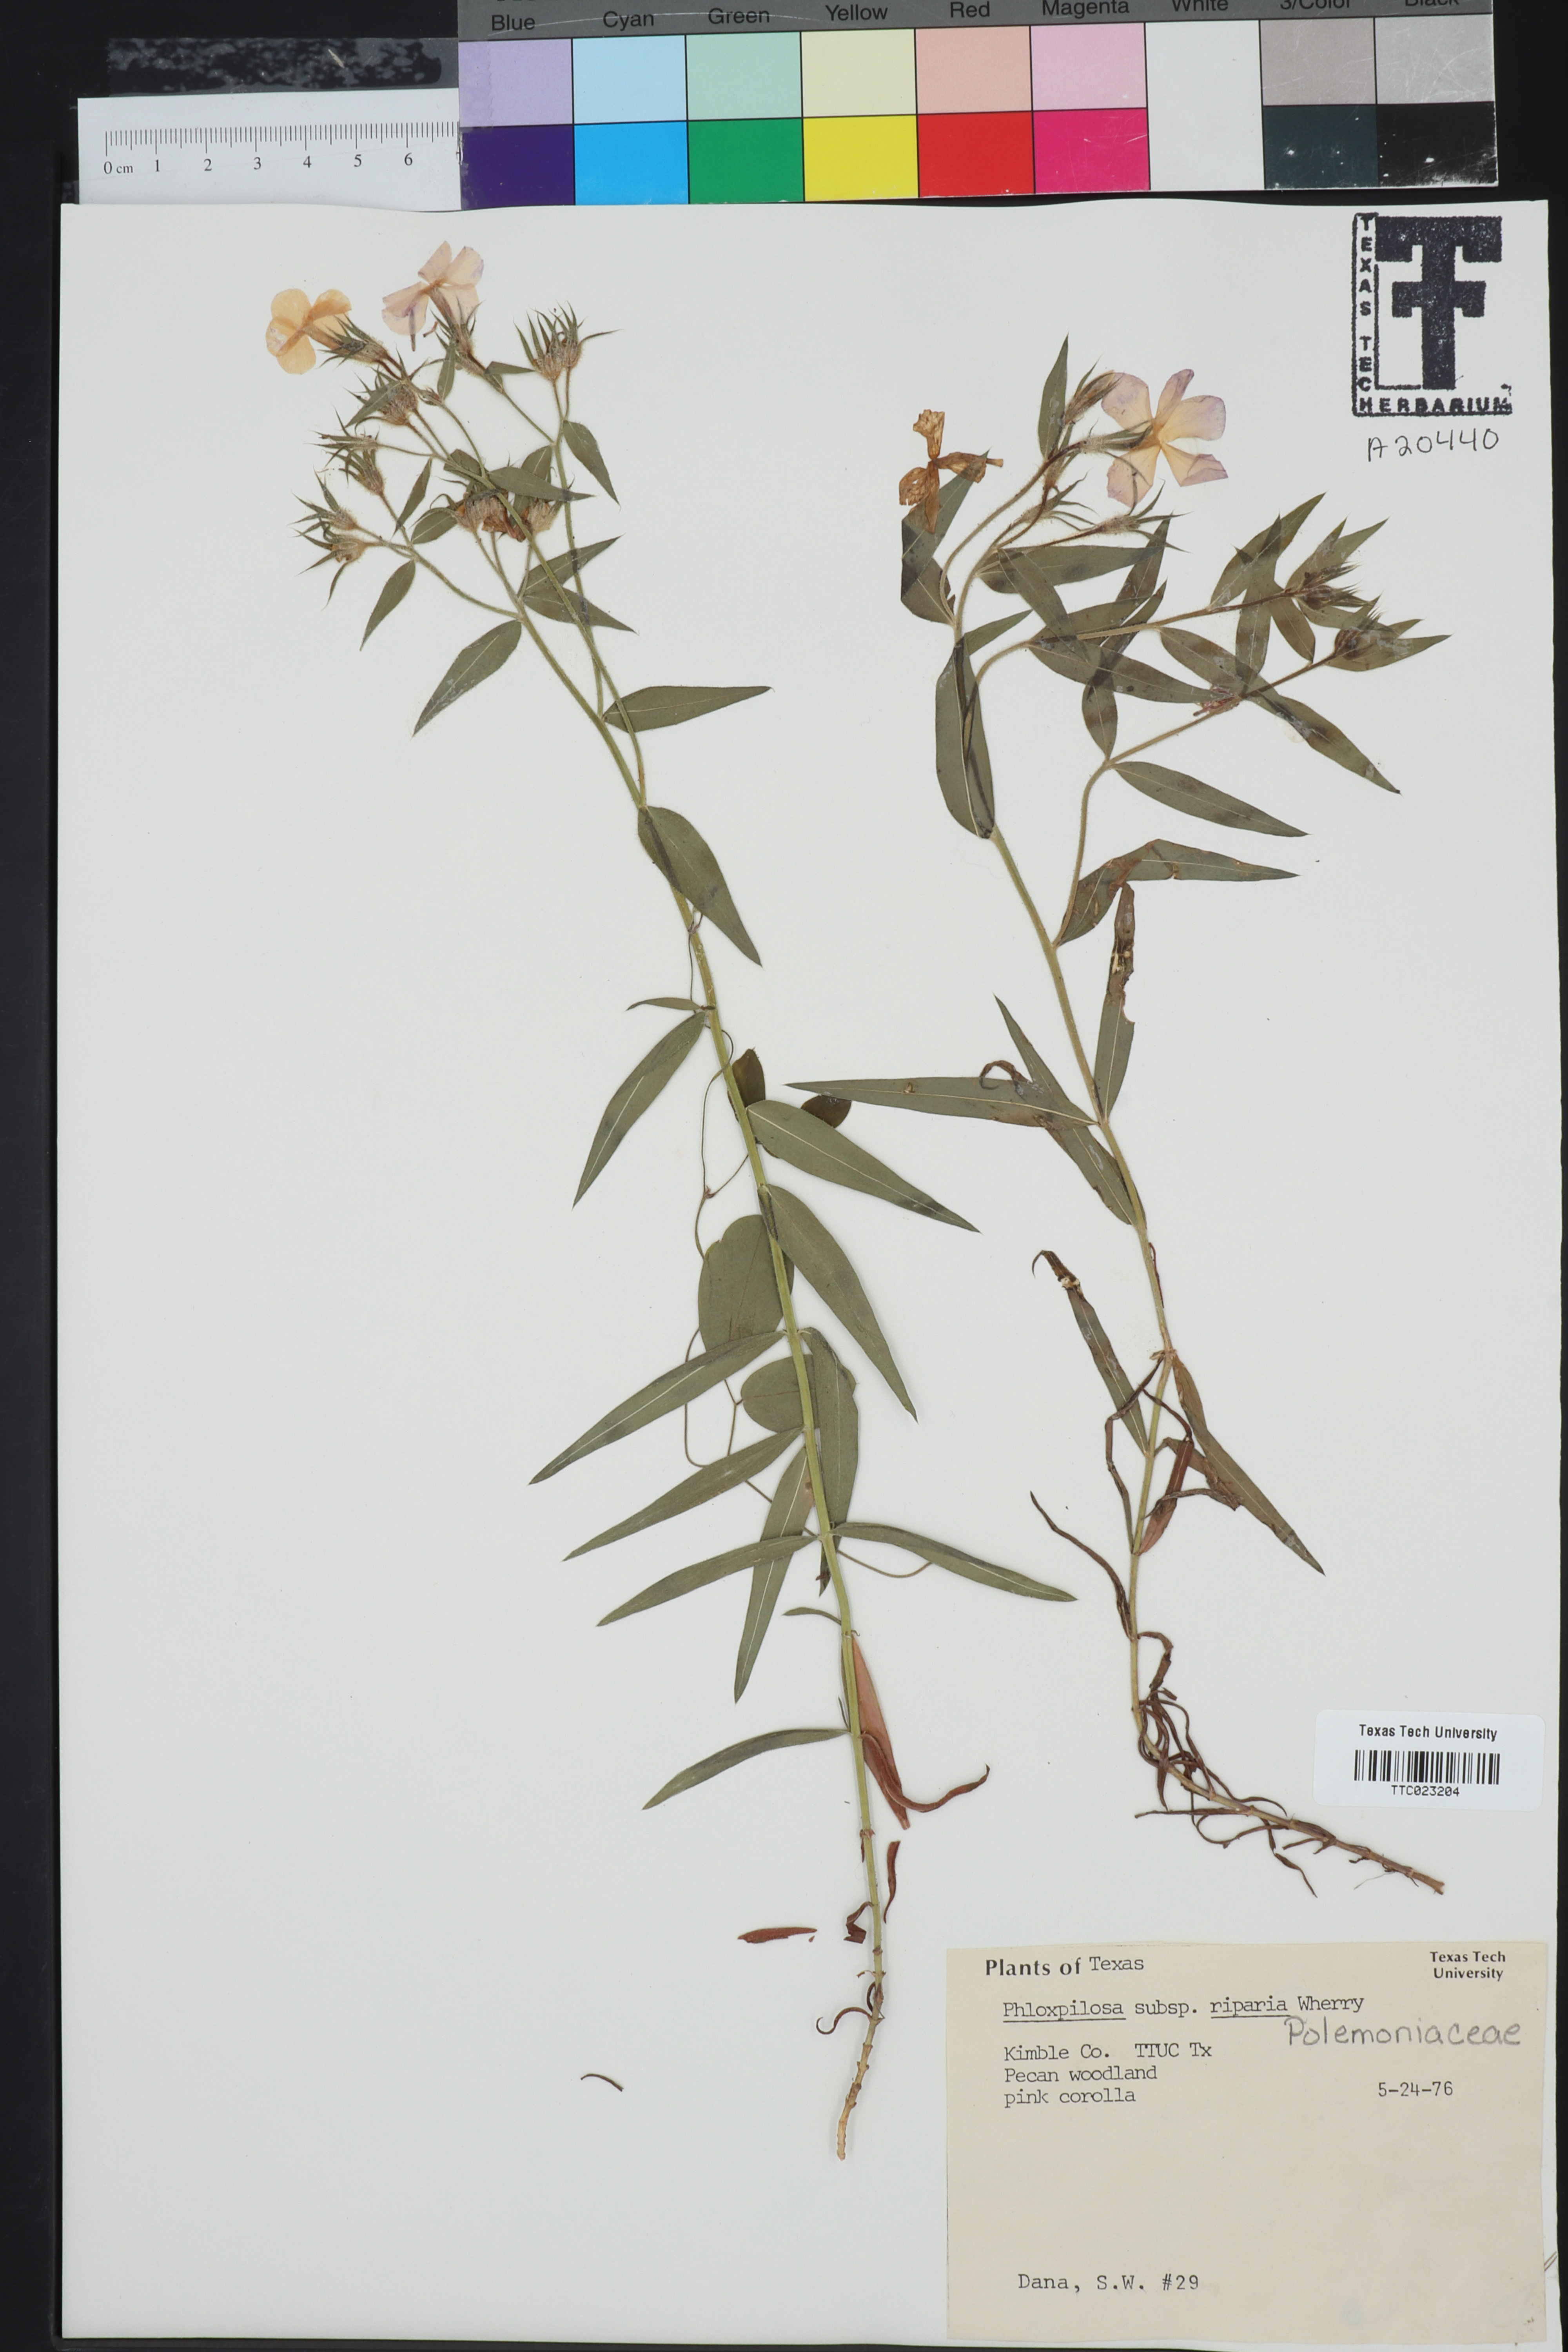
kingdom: Plantae
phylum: Tracheophyta
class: Magnoliopsida
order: Ericales
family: Polemoniaceae
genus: Phlox
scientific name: Phlox pilosa
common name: Prairie phlox
